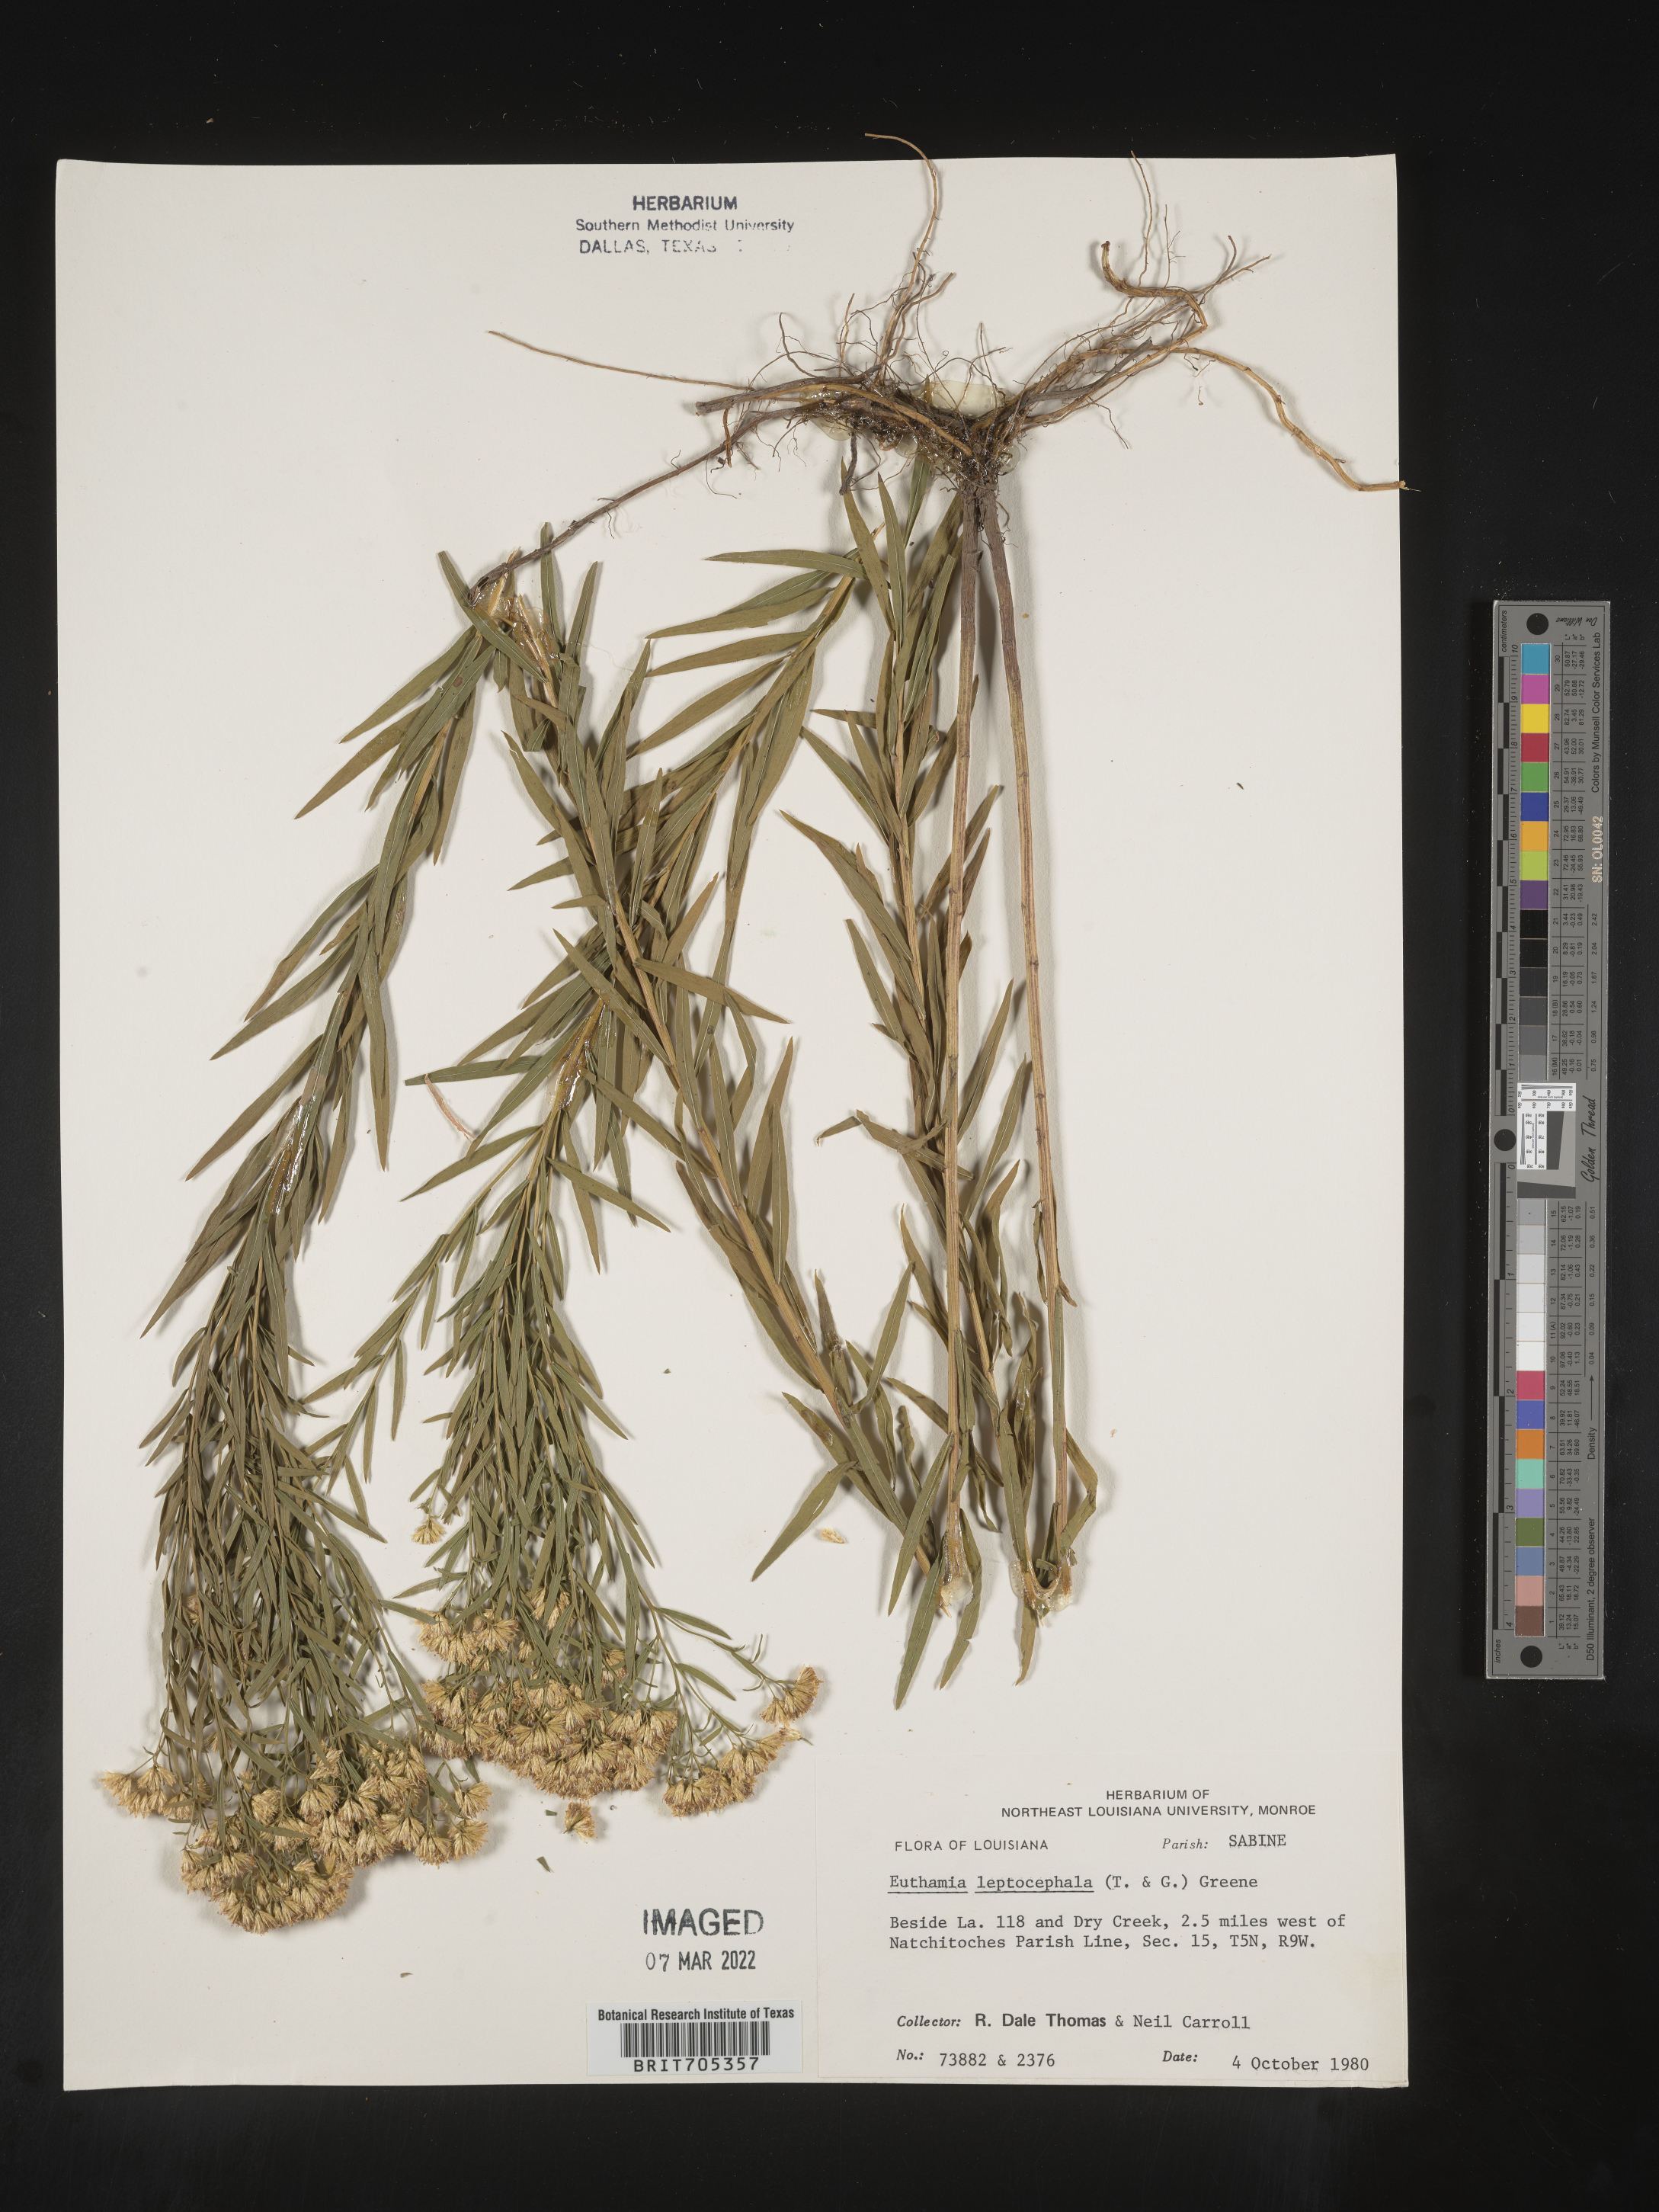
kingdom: Plantae
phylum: Tracheophyta
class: Magnoliopsida
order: Asterales
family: Asteraceae
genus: Euthamia
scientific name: Euthamia leptocephala
